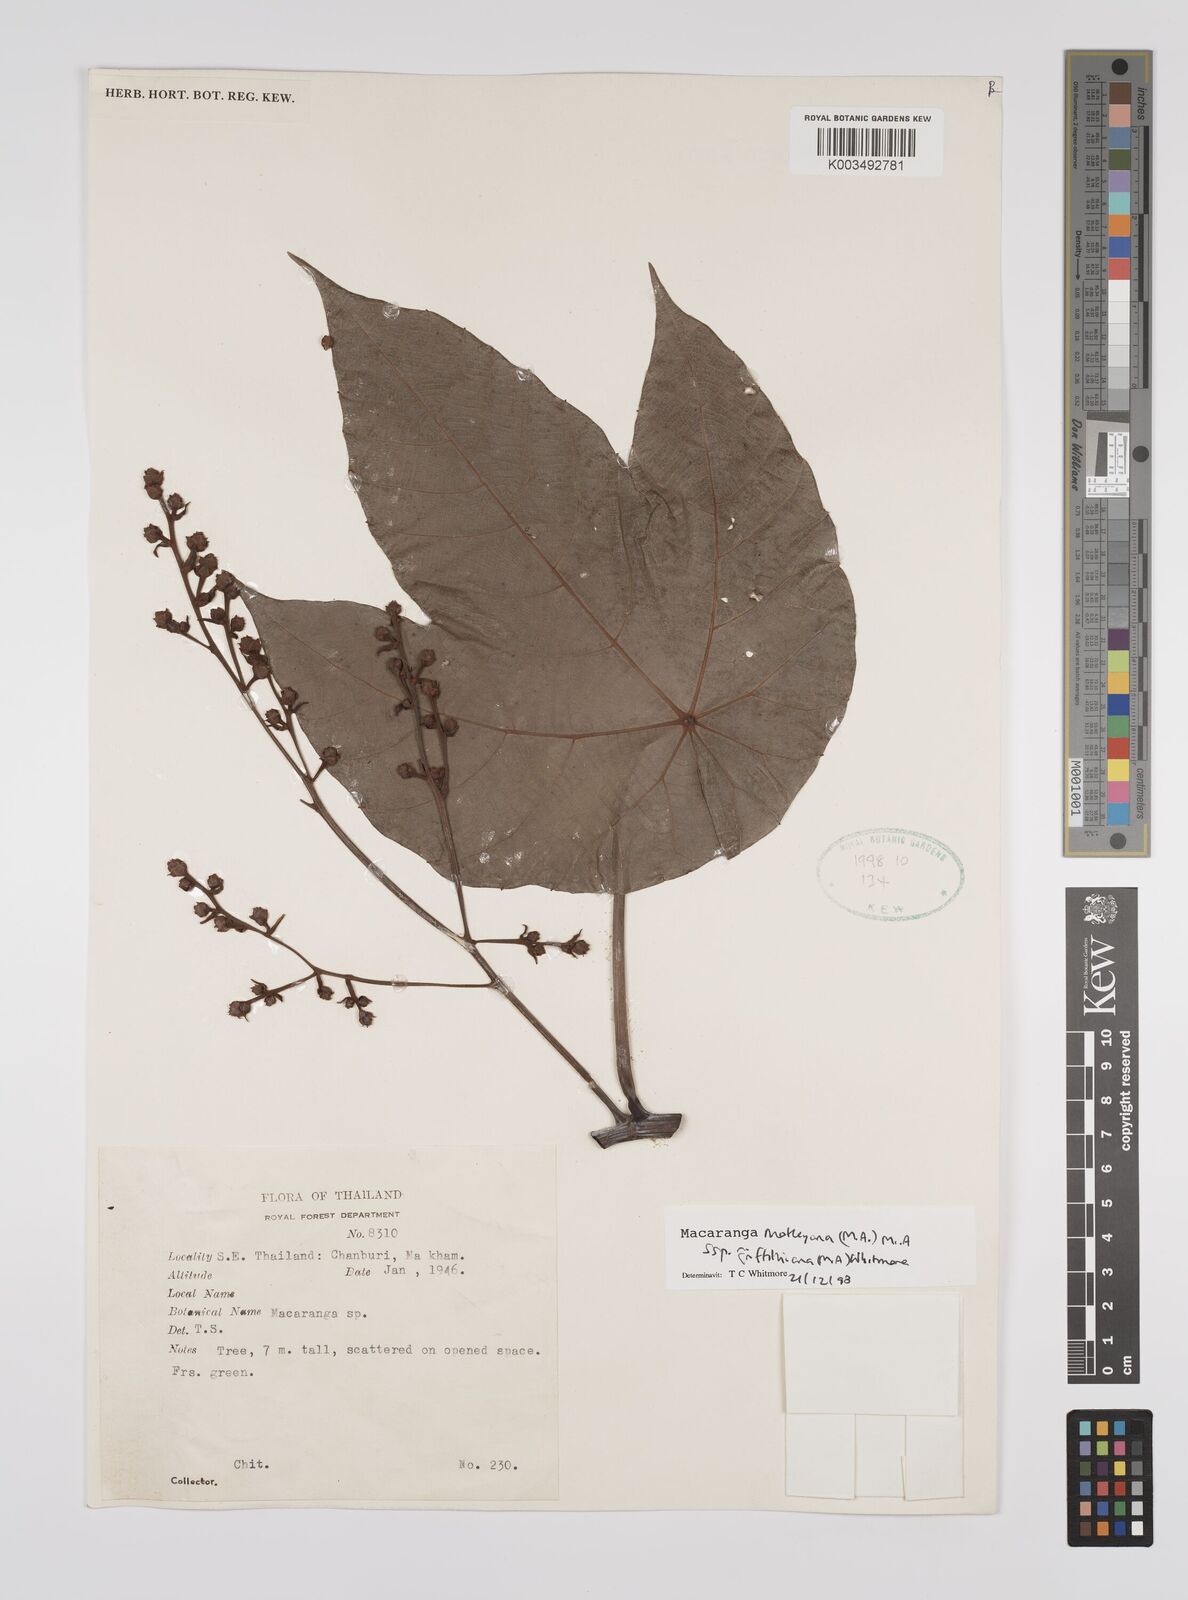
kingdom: Plantae
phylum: Tracheophyta
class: Magnoliopsida
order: Malpighiales
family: Euphorbiaceae
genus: Macaranga
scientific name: Macaranga griffithiana
